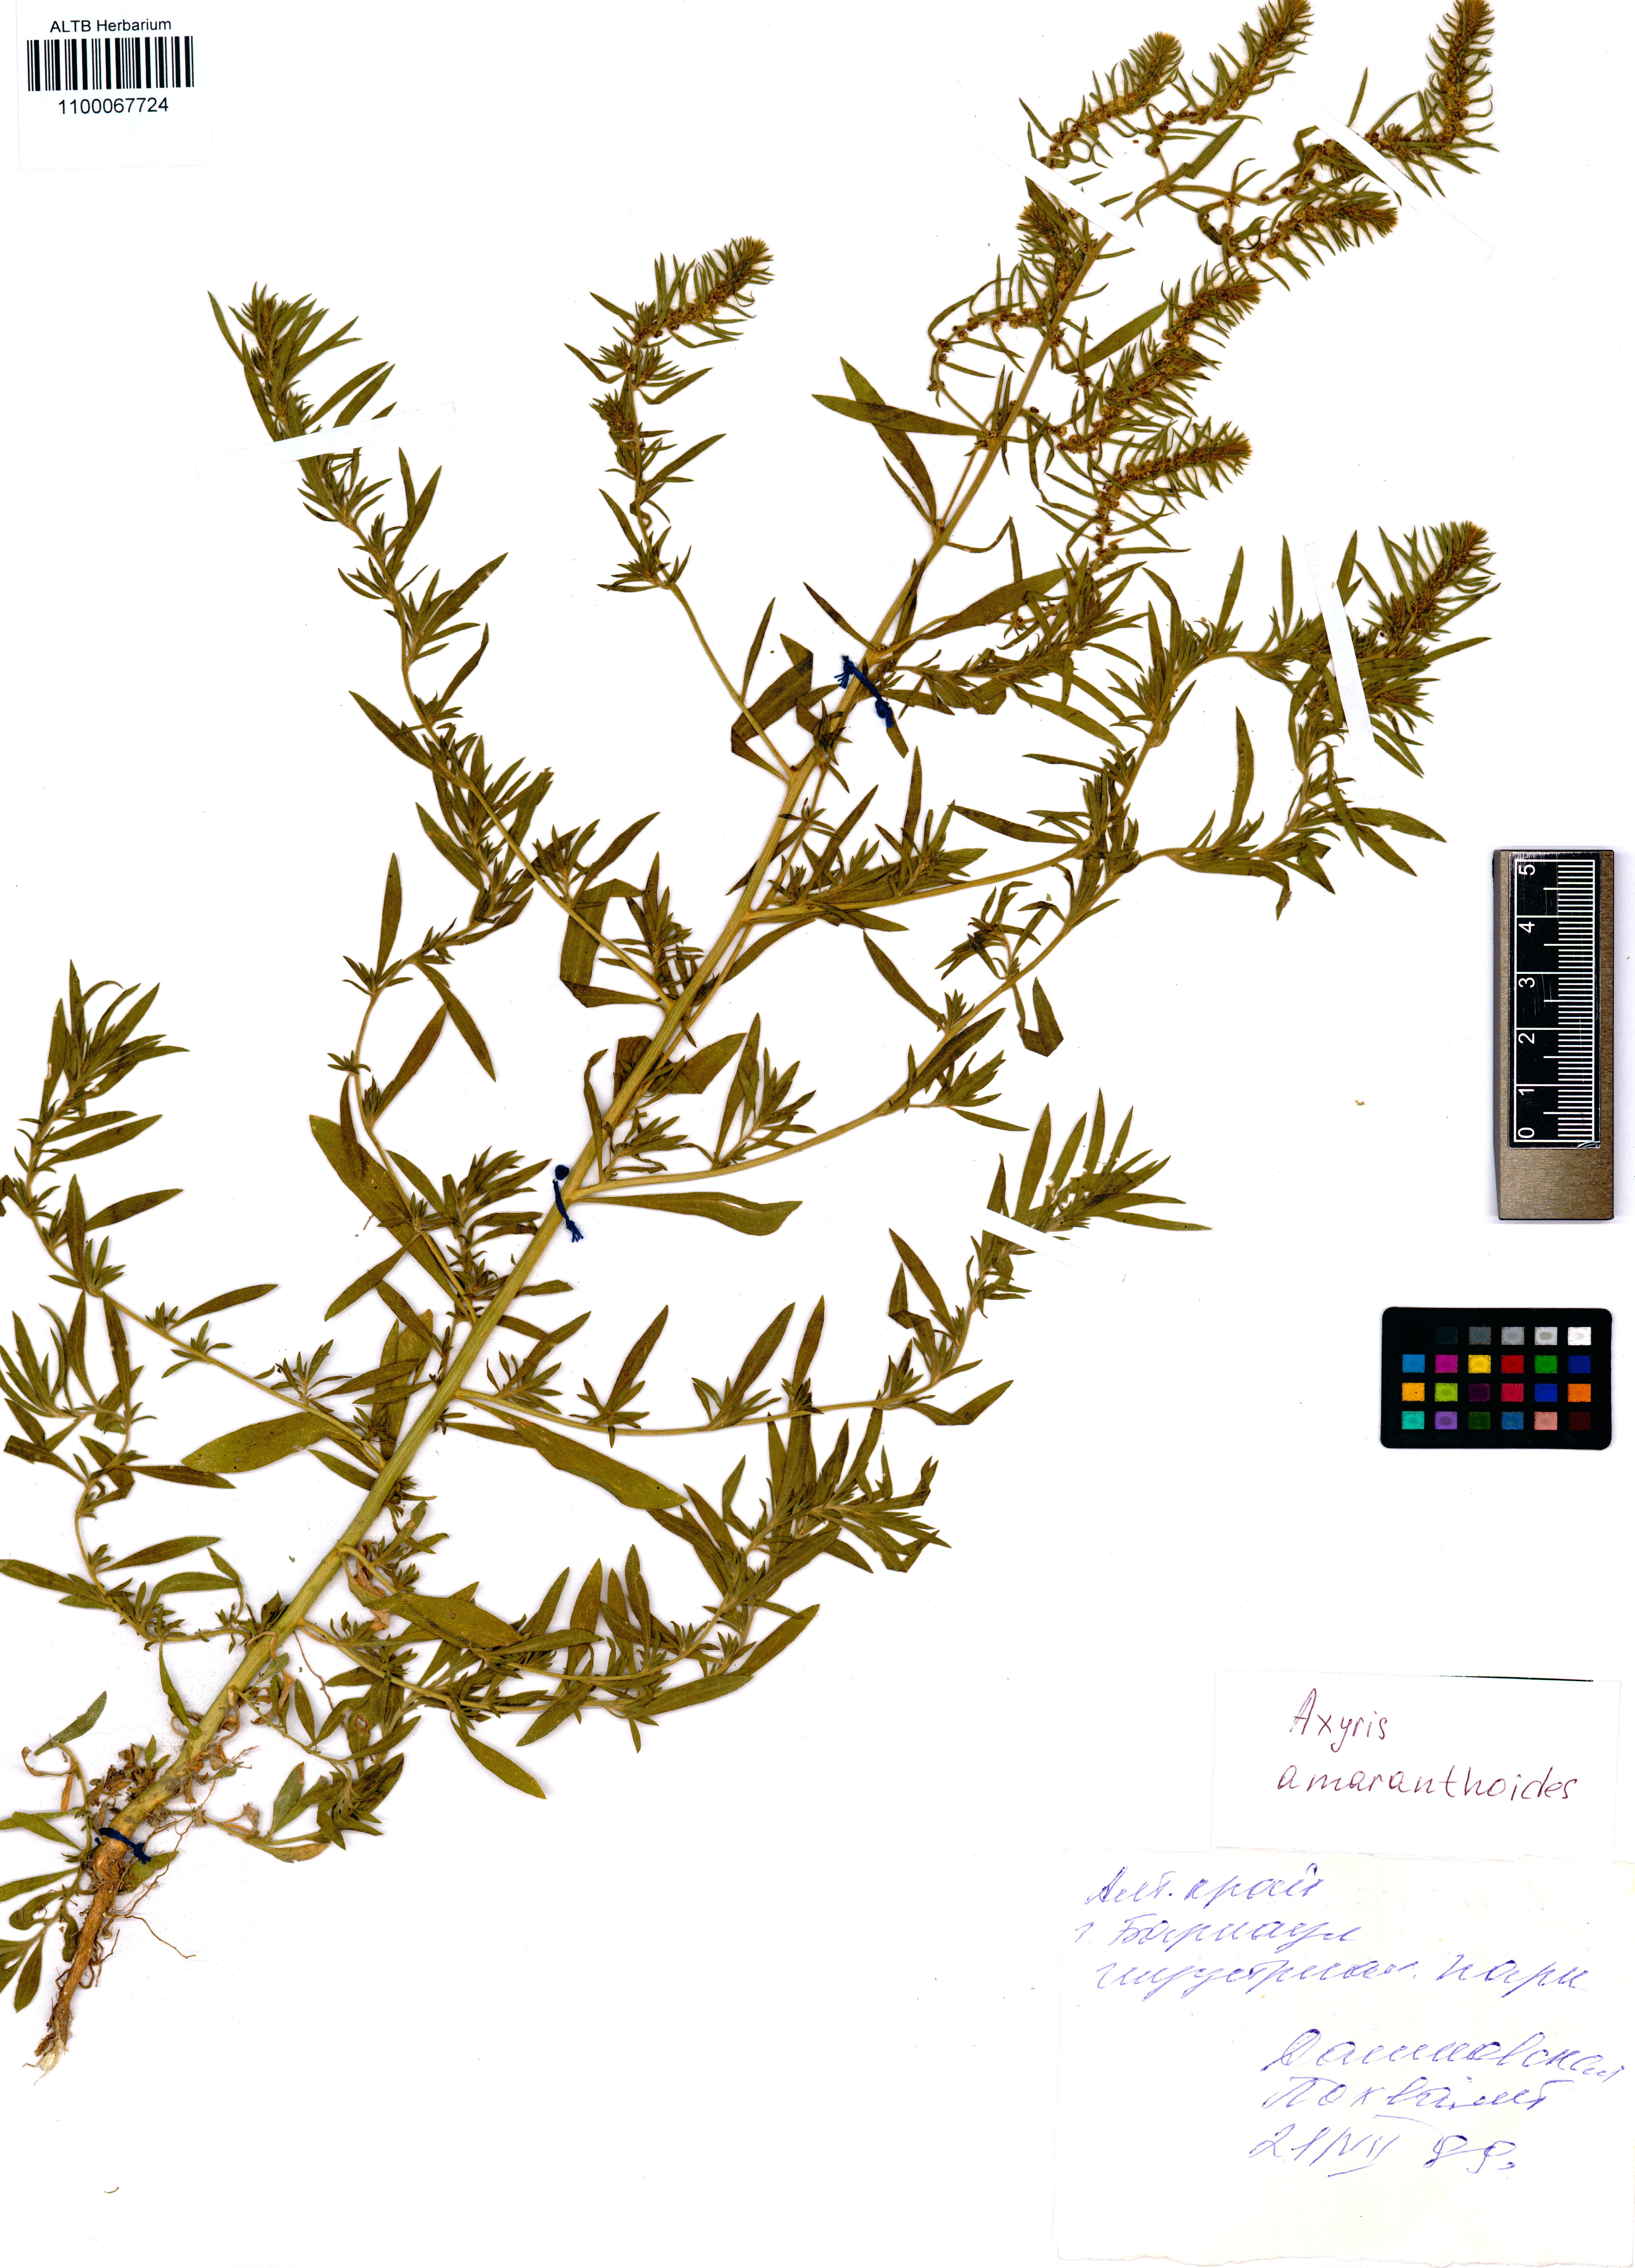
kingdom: Plantae
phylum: Tracheophyta
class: Magnoliopsida
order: Caryophyllales
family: Amaranthaceae
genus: Axyris
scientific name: Axyris amaranthoides
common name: Russian pigweed
